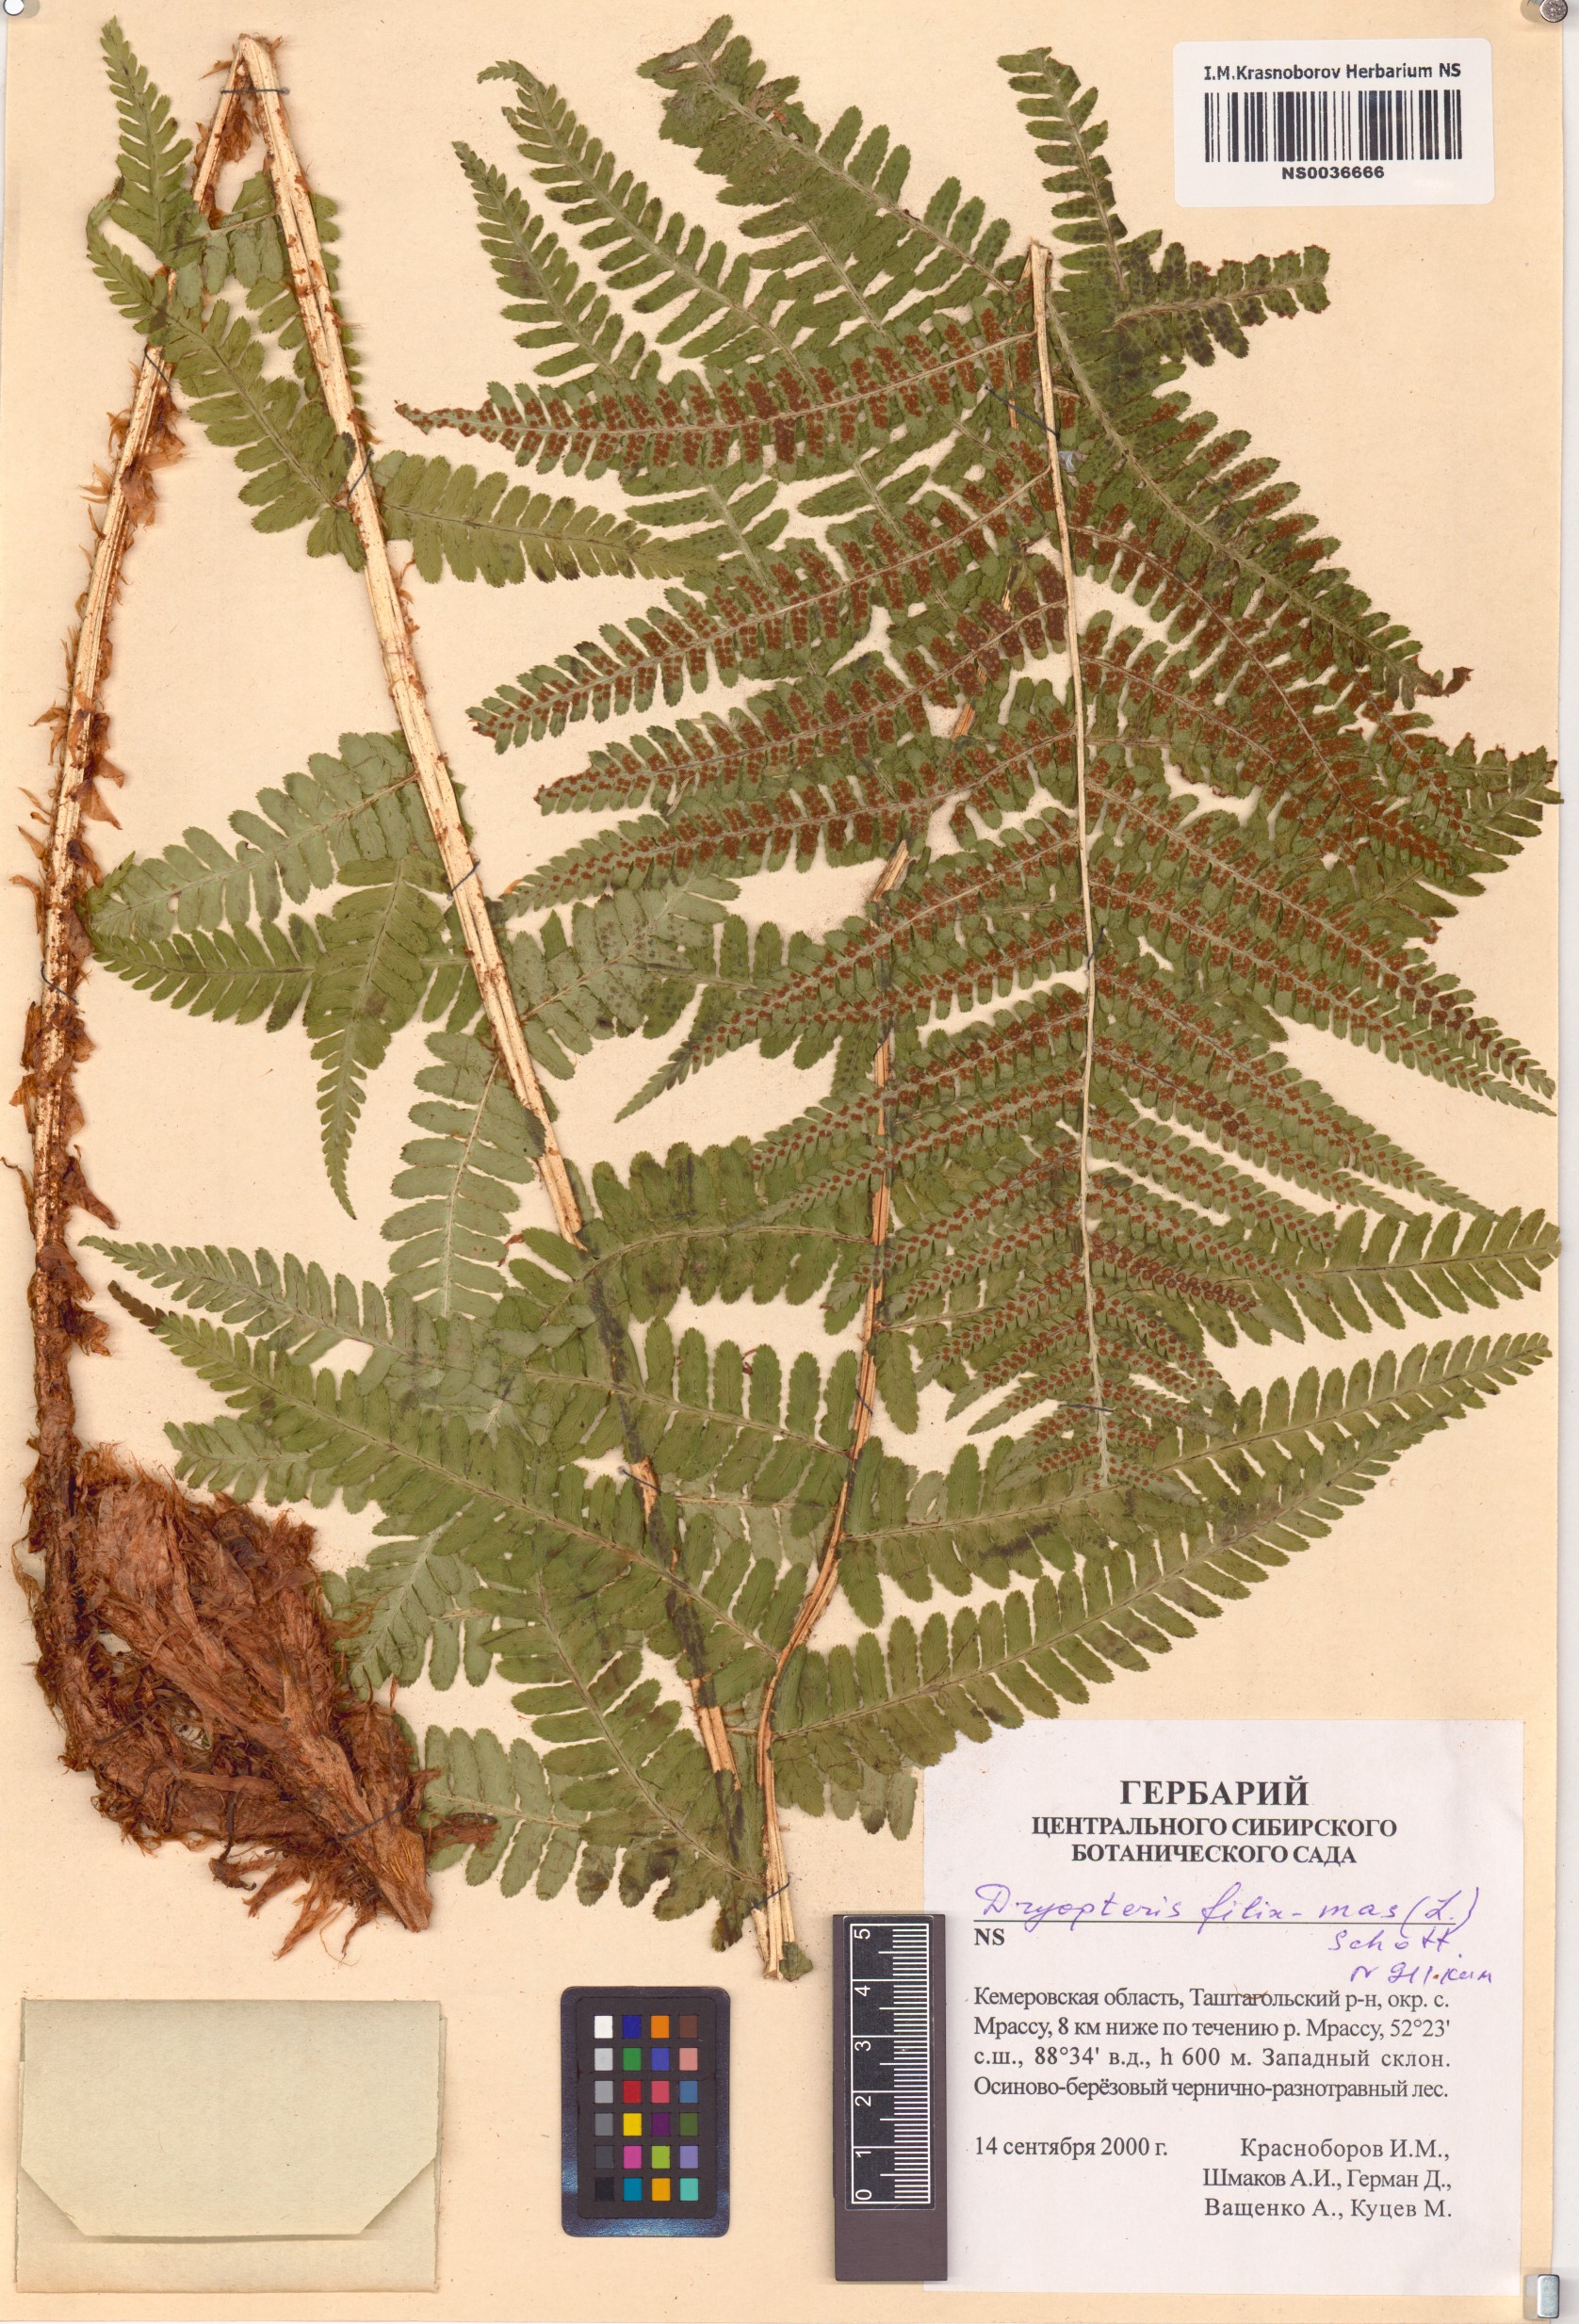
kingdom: Plantae
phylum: Tracheophyta
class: Polypodiopsida
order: Polypodiales
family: Dryopteridaceae
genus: Dryopteris
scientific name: Dryopteris filix-mas
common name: Male fern
